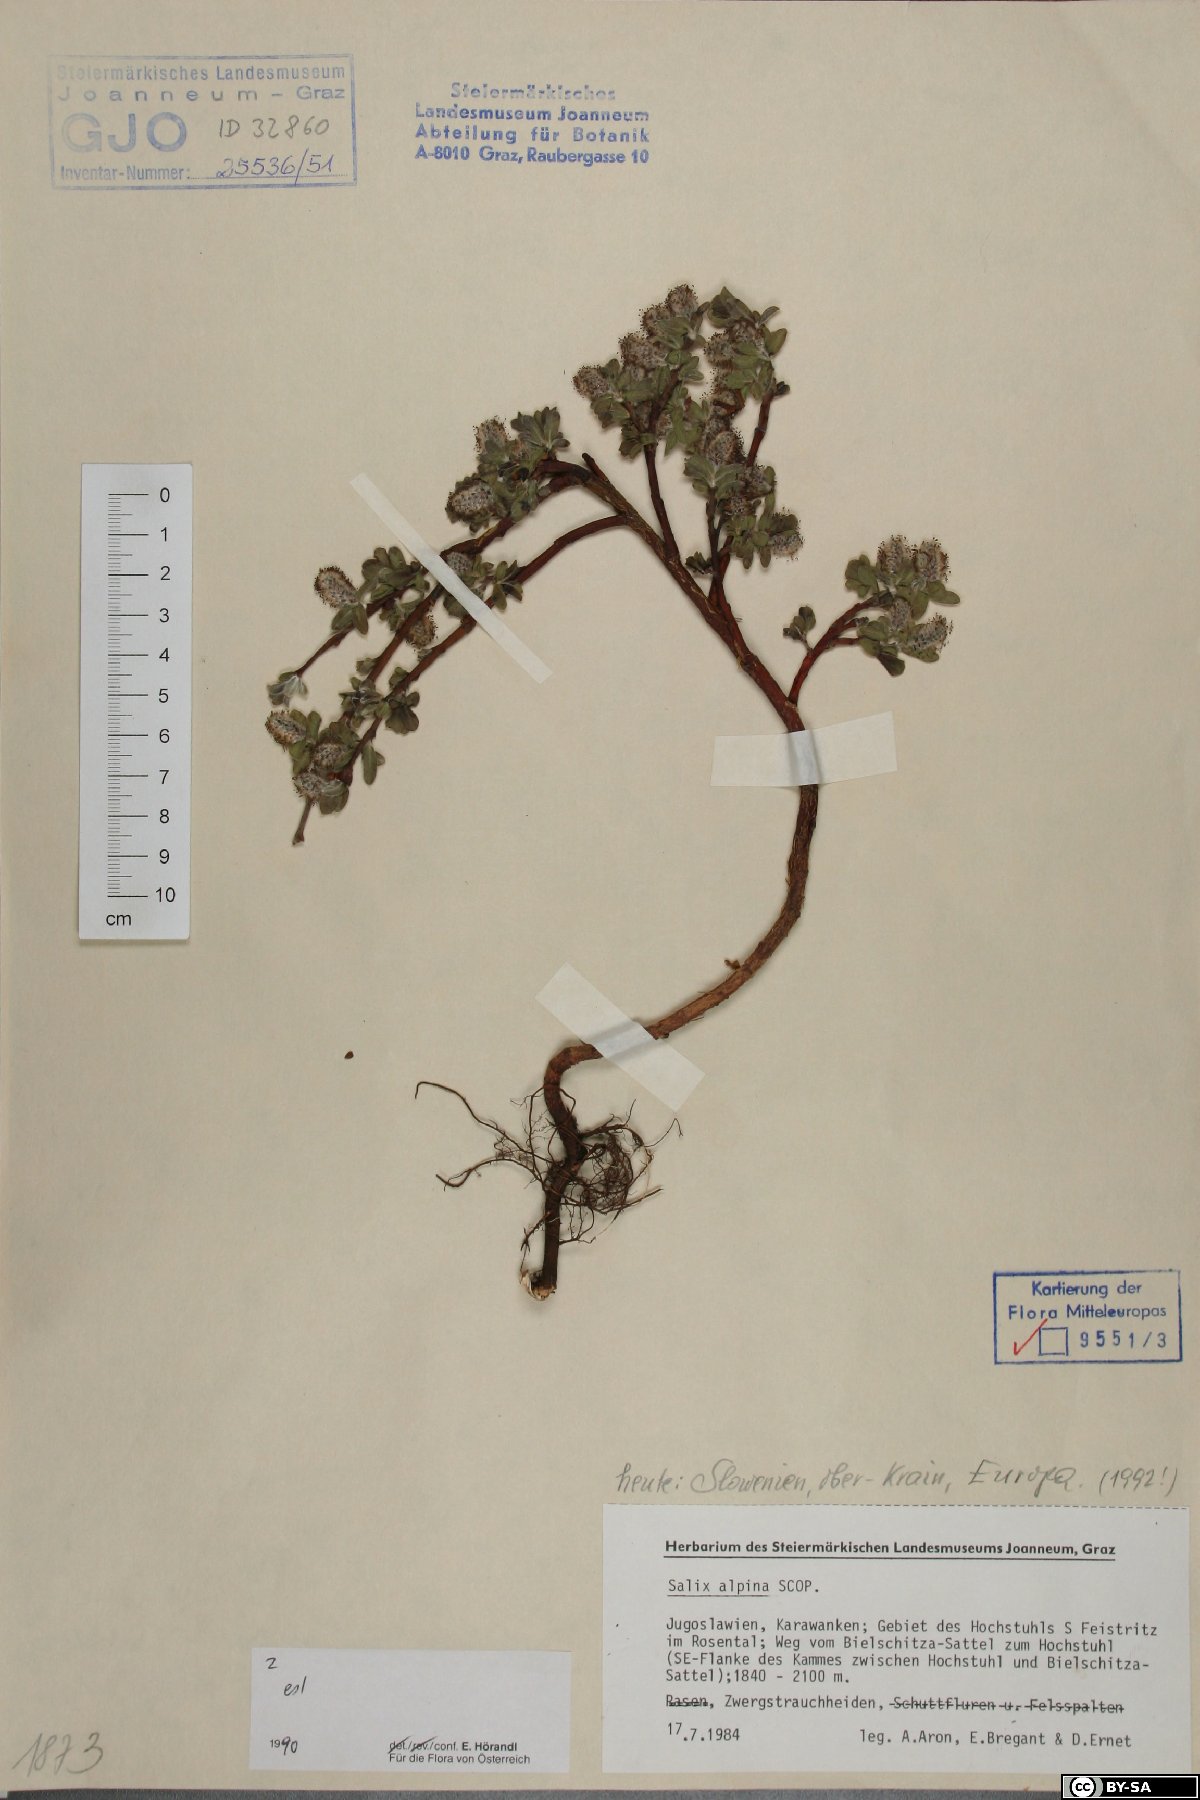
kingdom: Plantae
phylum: Tracheophyta
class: Magnoliopsida
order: Malpighiales
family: Salicaceae
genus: Salix
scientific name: Salix alpina
